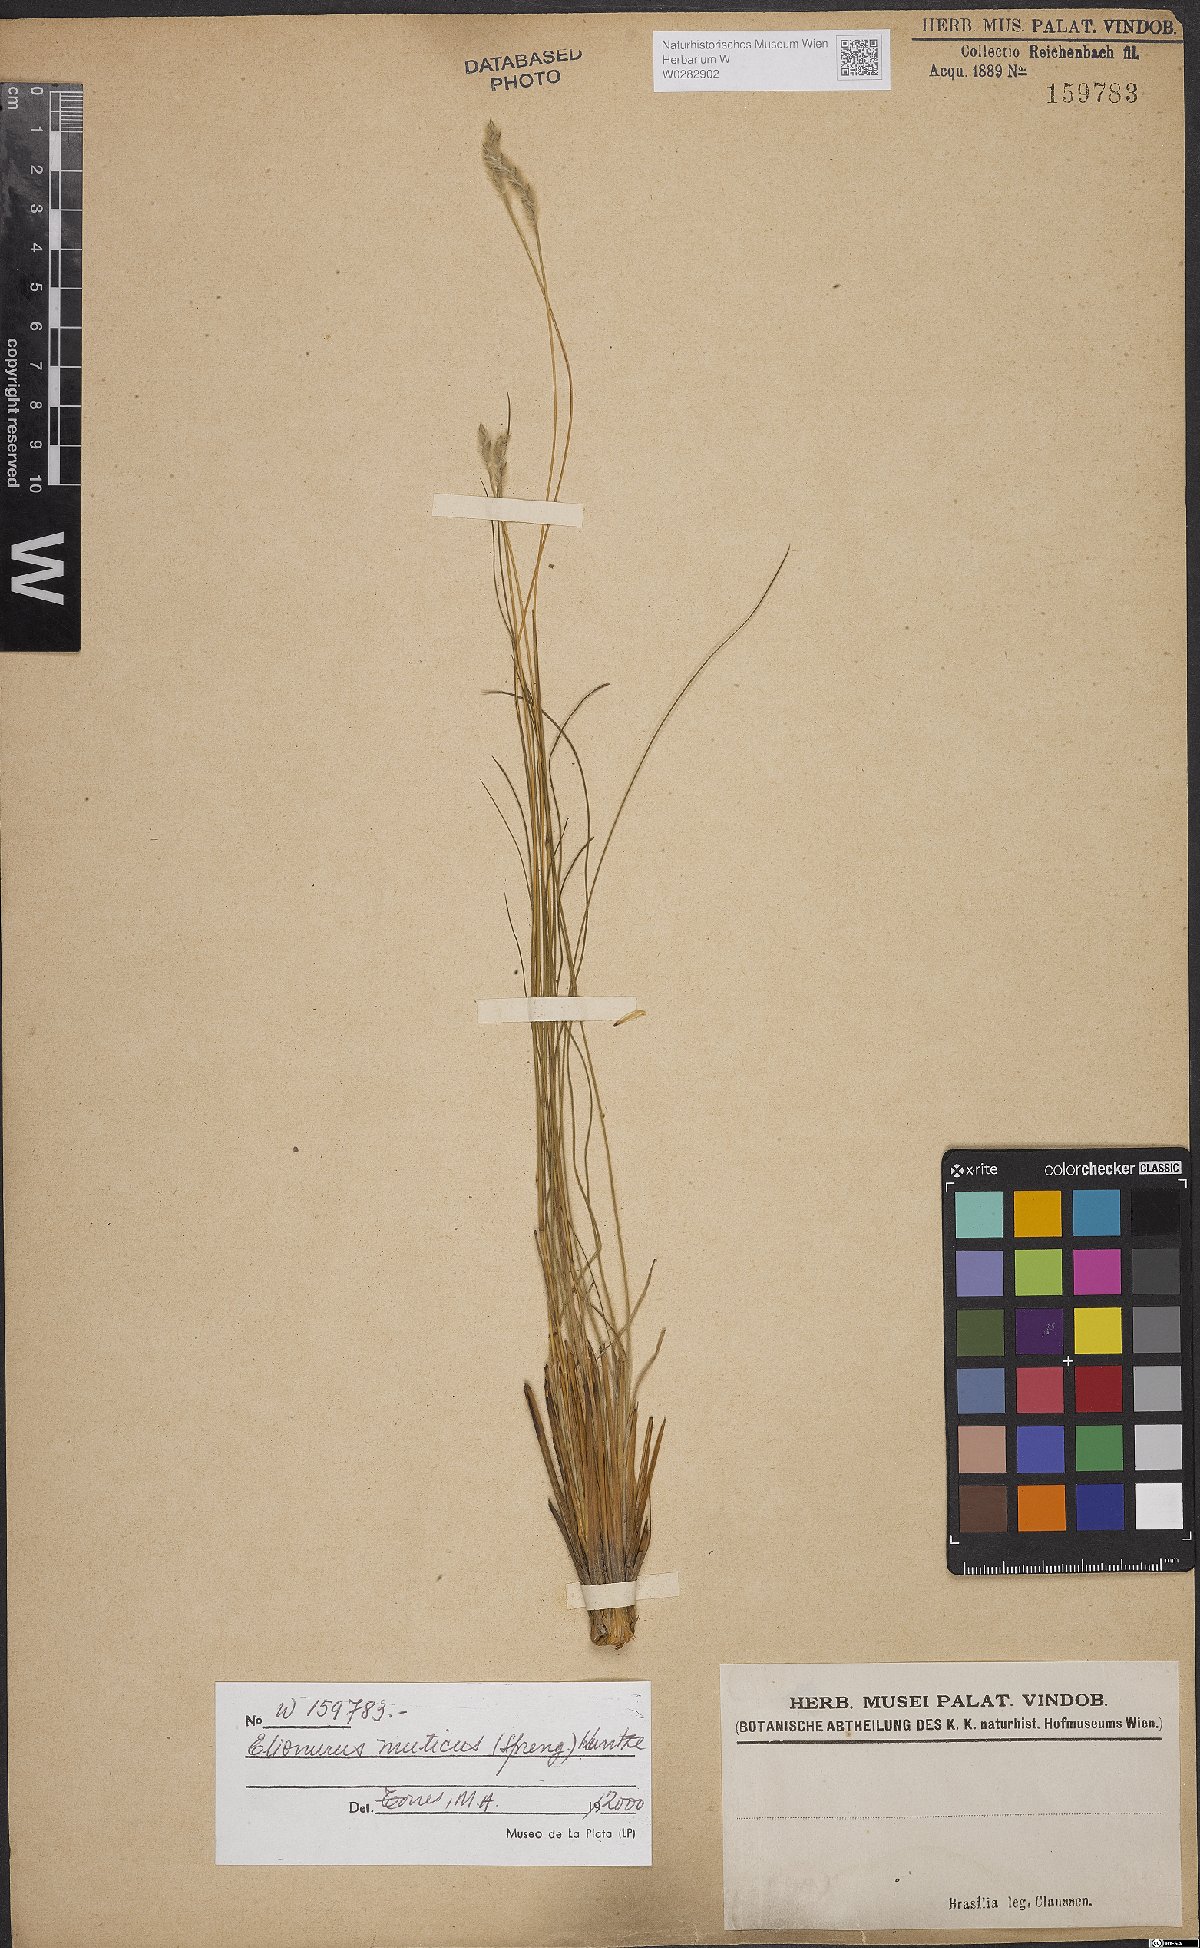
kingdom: Plantae
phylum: Tracheophyta
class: Liliopsida
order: Poales
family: Poaceae
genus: Elionurus
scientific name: Elionurus muticus
